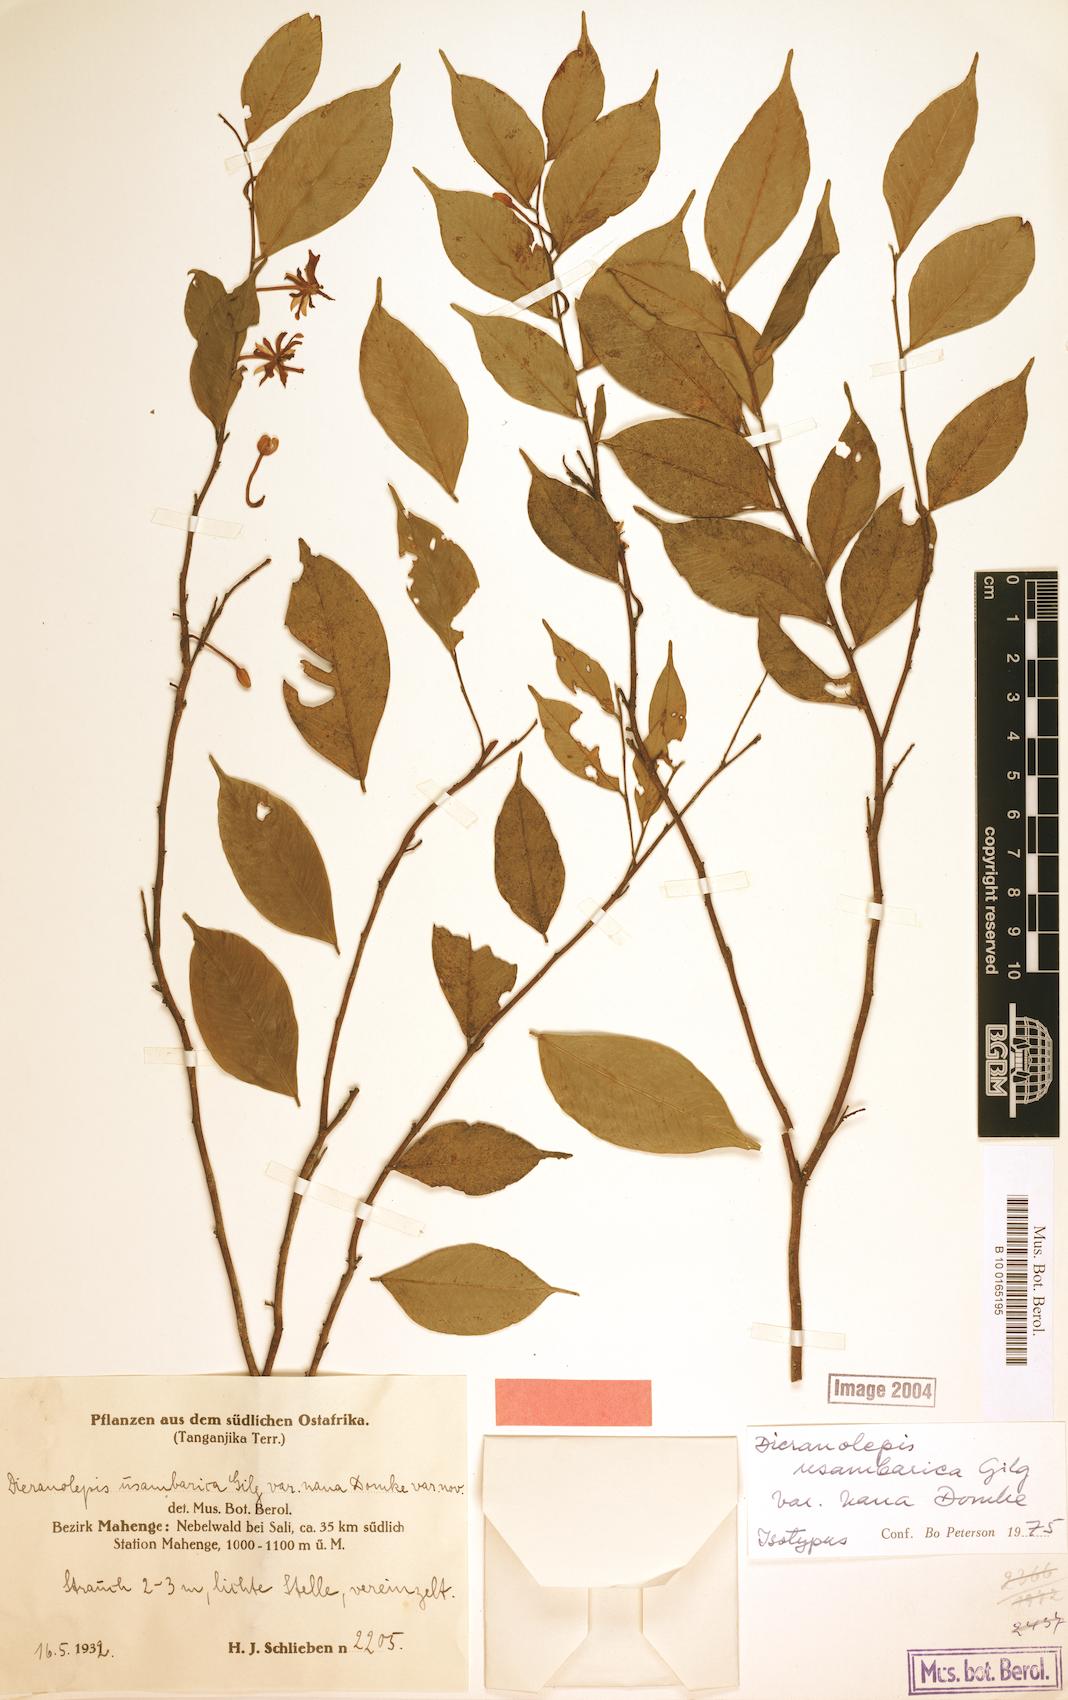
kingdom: Plantae
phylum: Tracheophyta
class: Magnoliopsida
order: Malvales
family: Thymelaeaceae
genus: Dicranolepis
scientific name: Dicranolepis usambarica
